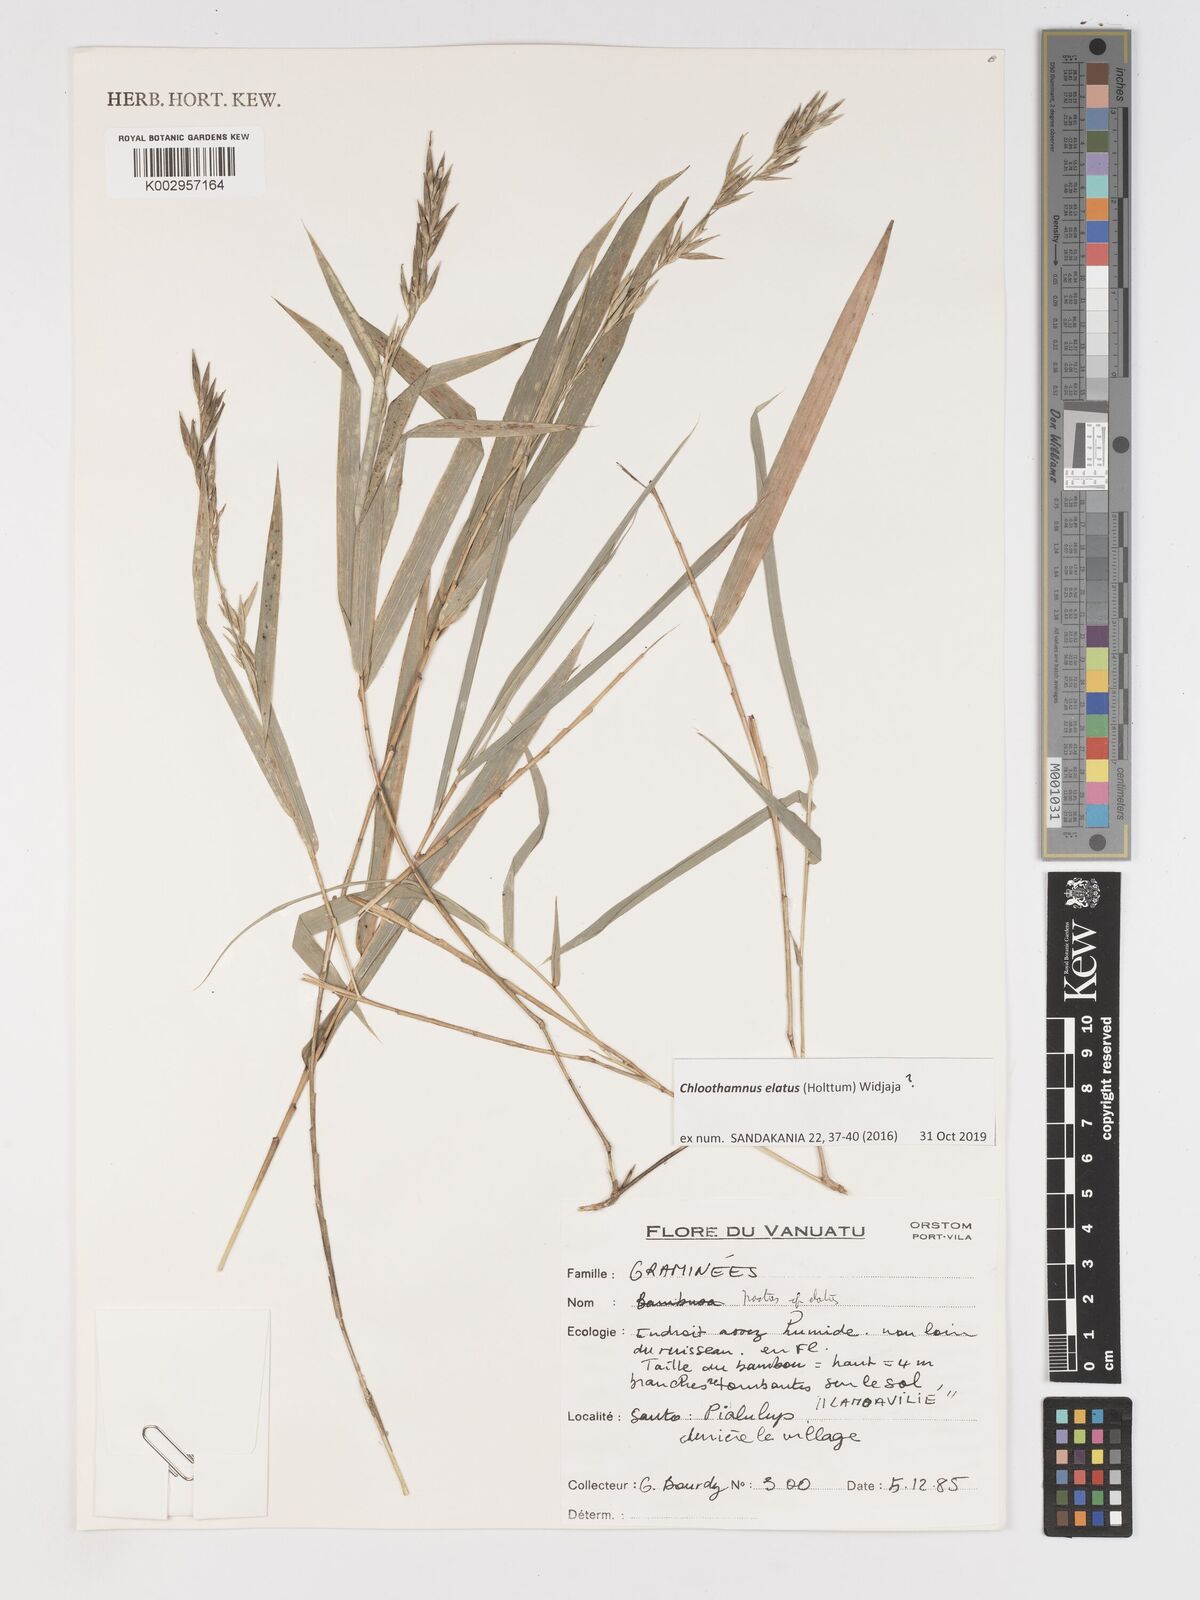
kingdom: Plantae
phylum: Tracheophyta
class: Liliopsida
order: Poales
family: Poaceae
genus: Chloothamnus
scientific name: Chloothamnus elatus
